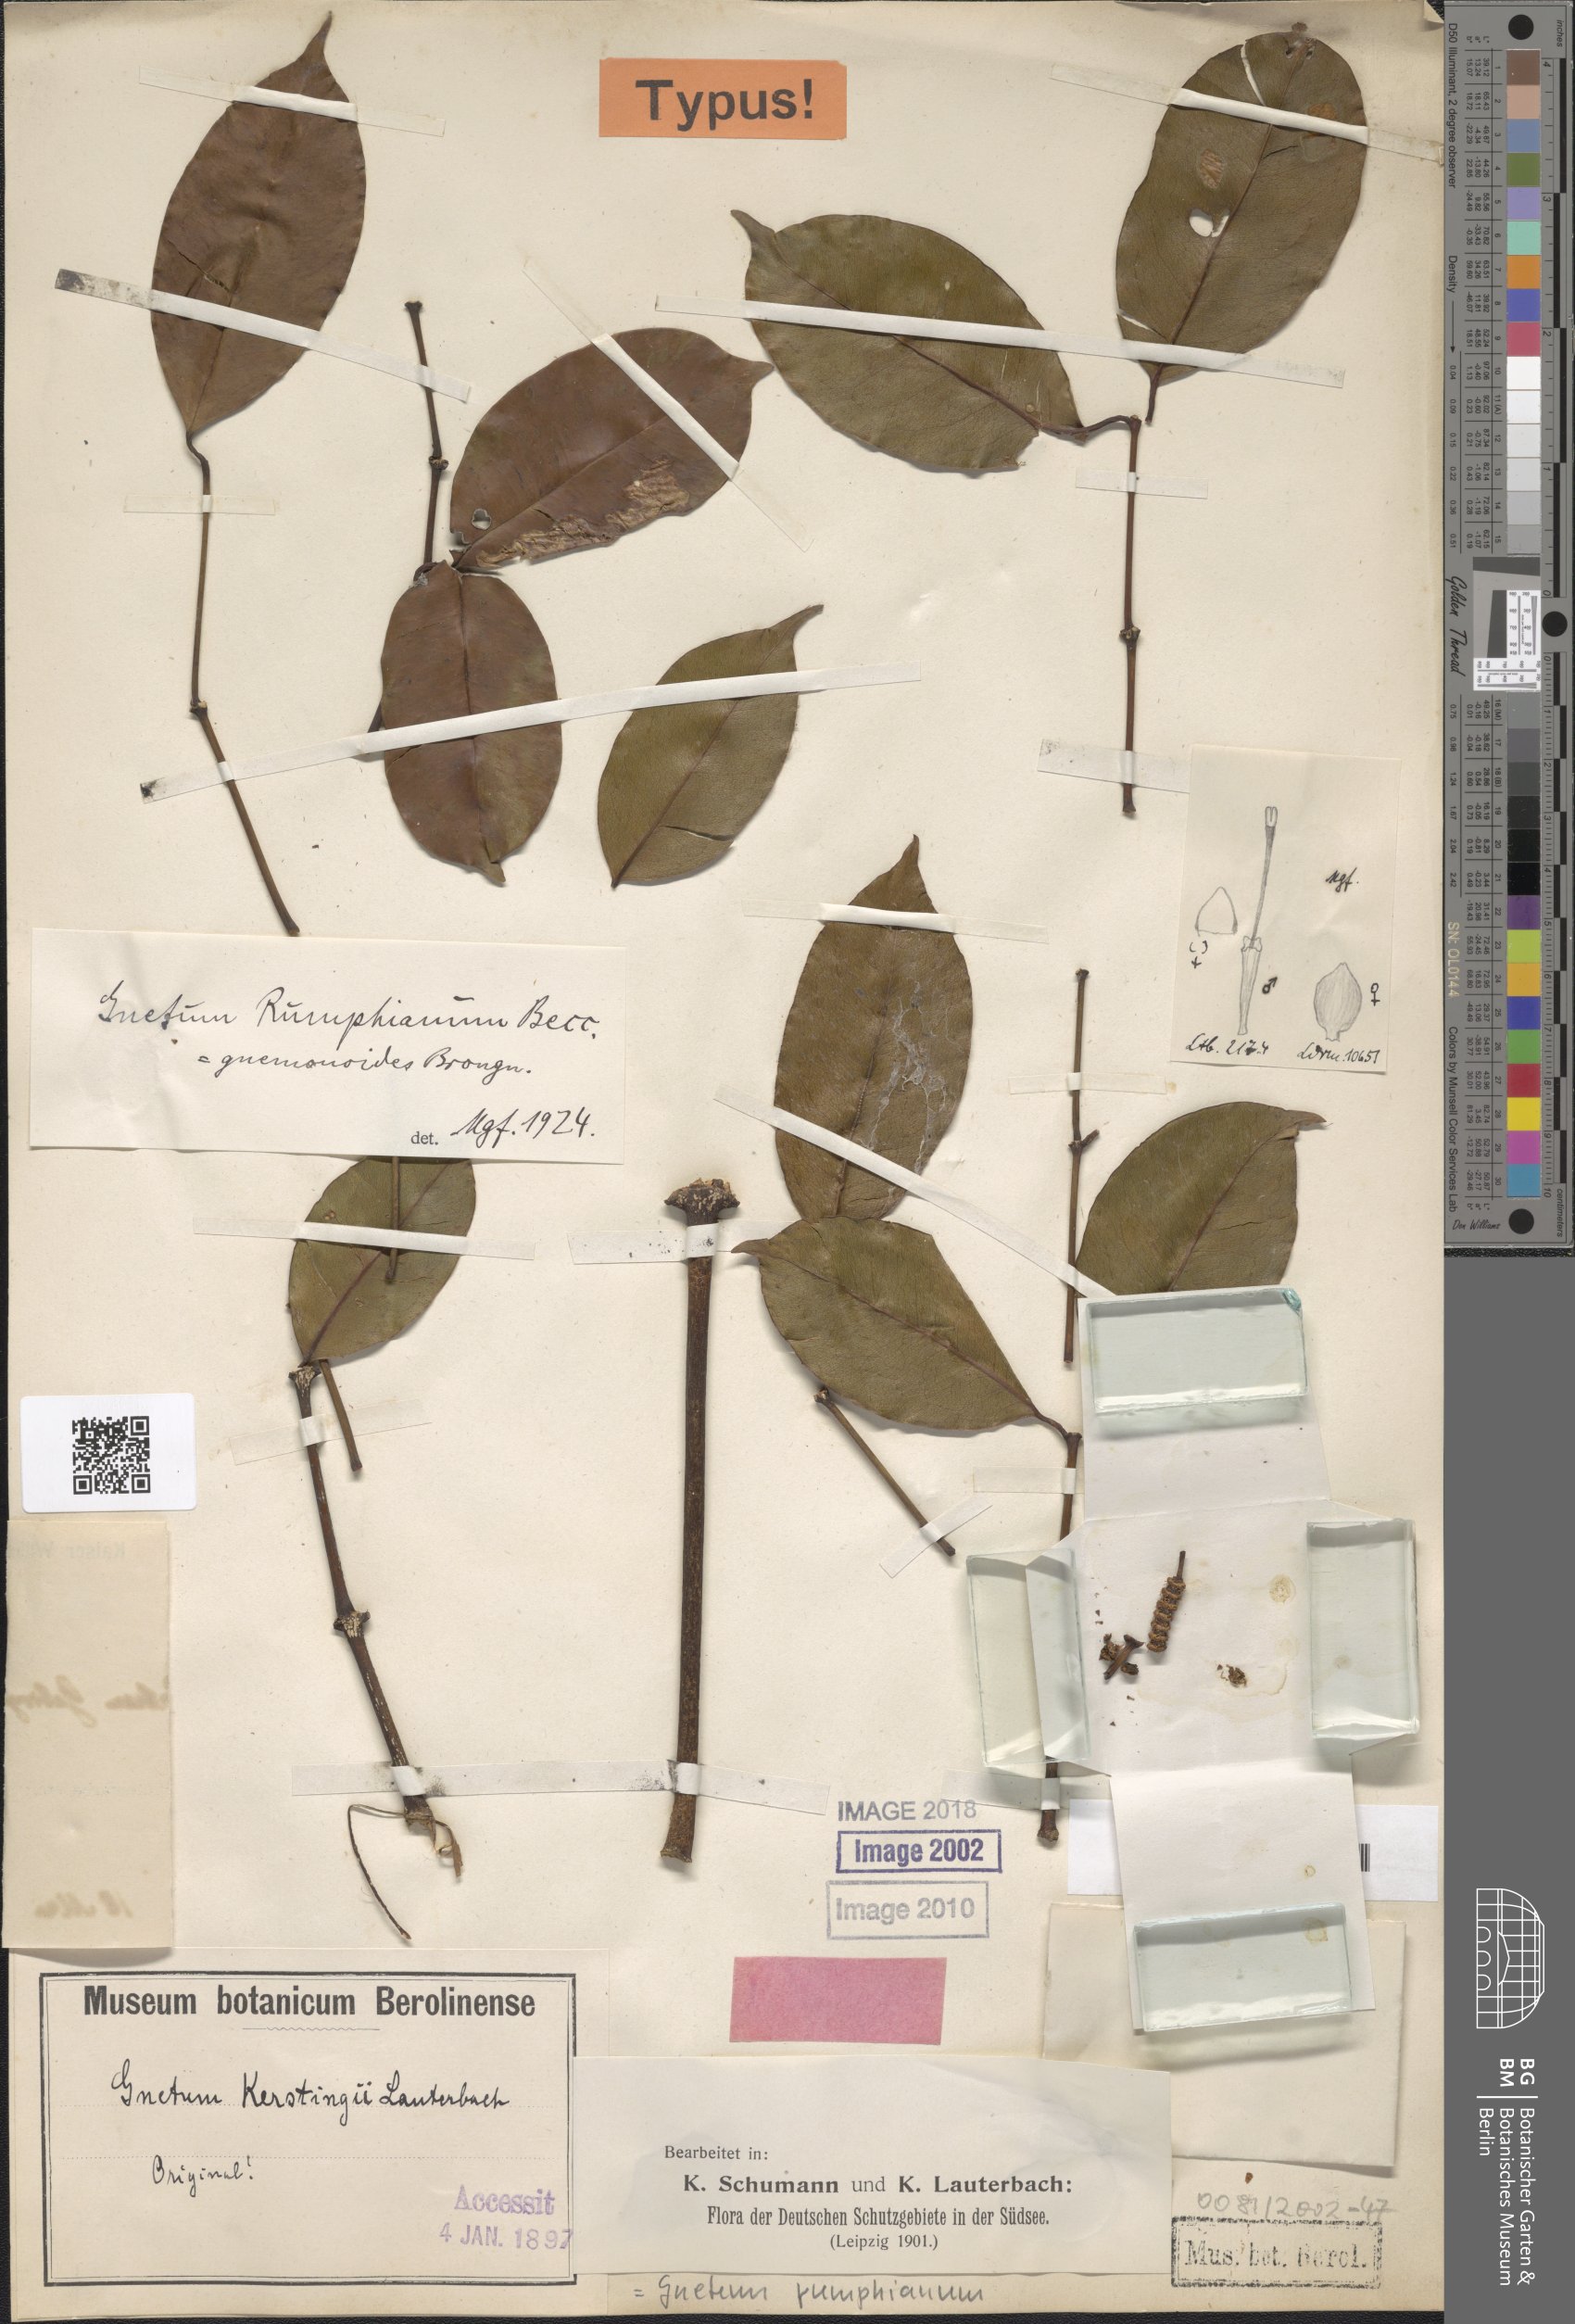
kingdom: Plantae
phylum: Tracheophyta
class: Gnetopsida
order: Gnetales
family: Gnetaceae
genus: Gnetum
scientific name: Gnetum gnemonoides
